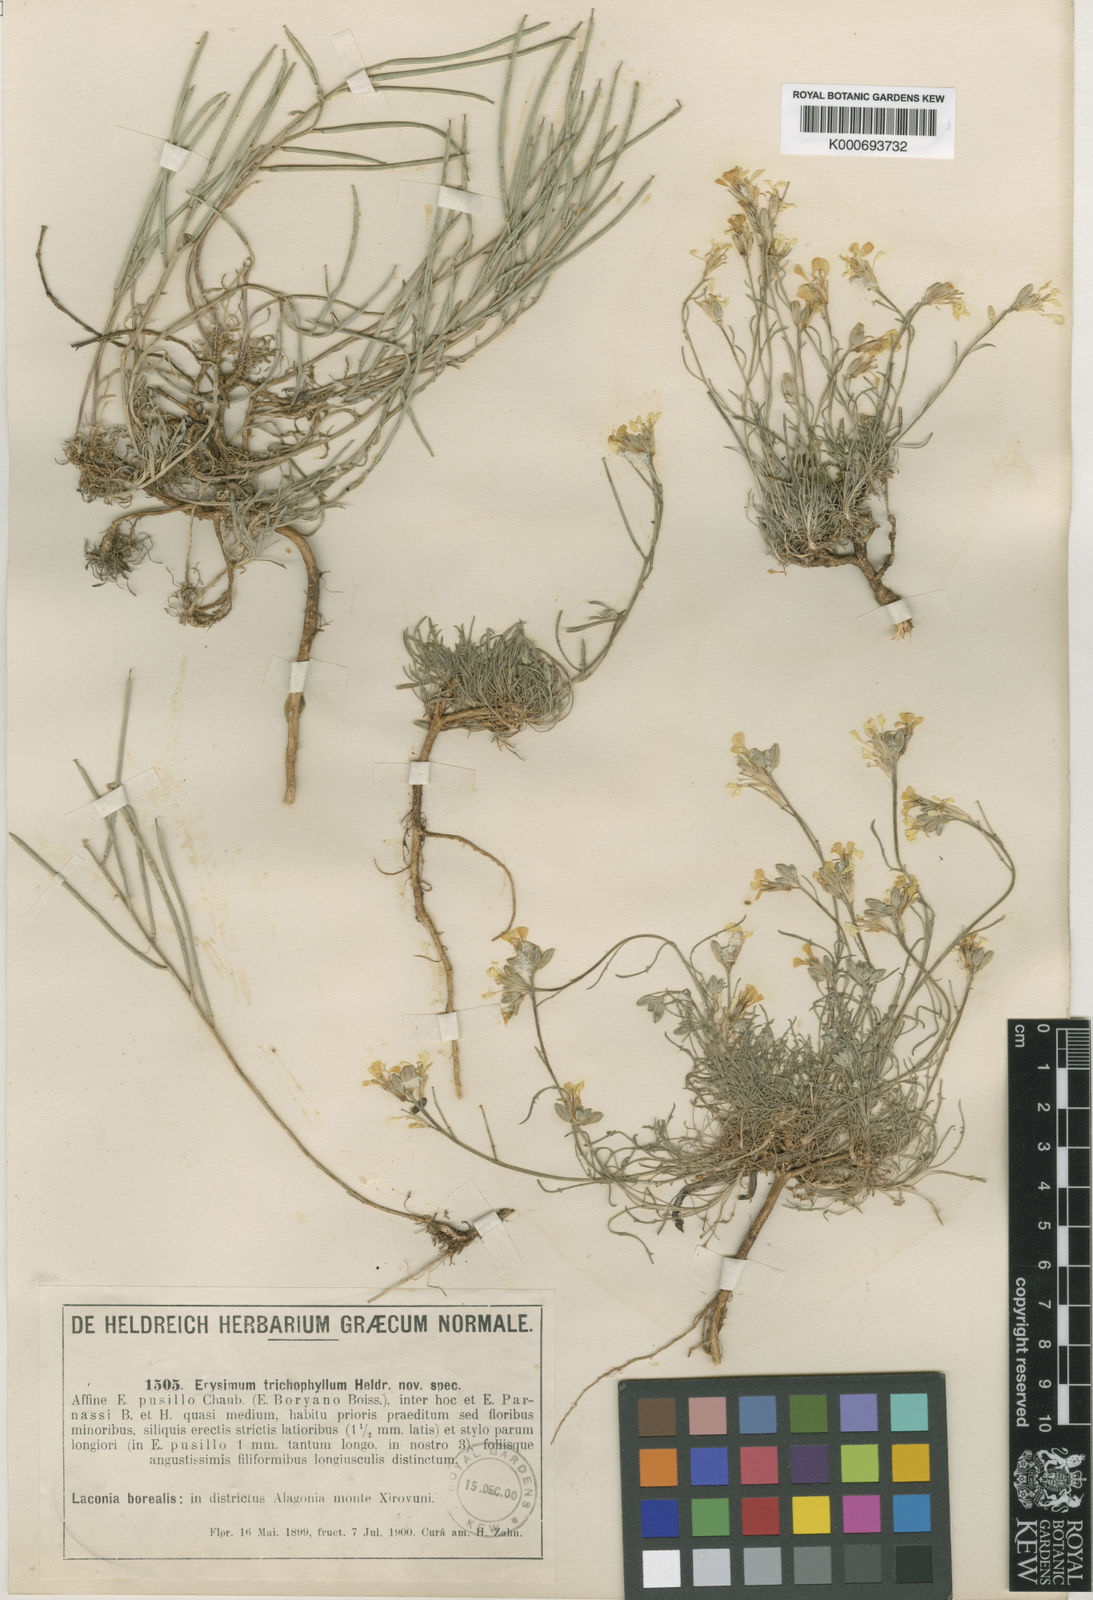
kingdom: Plantae
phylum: Tracheophyta
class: Magnoliopsida
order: Brassicales
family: Brassicaceae
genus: Erysimum
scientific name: Erysimum
